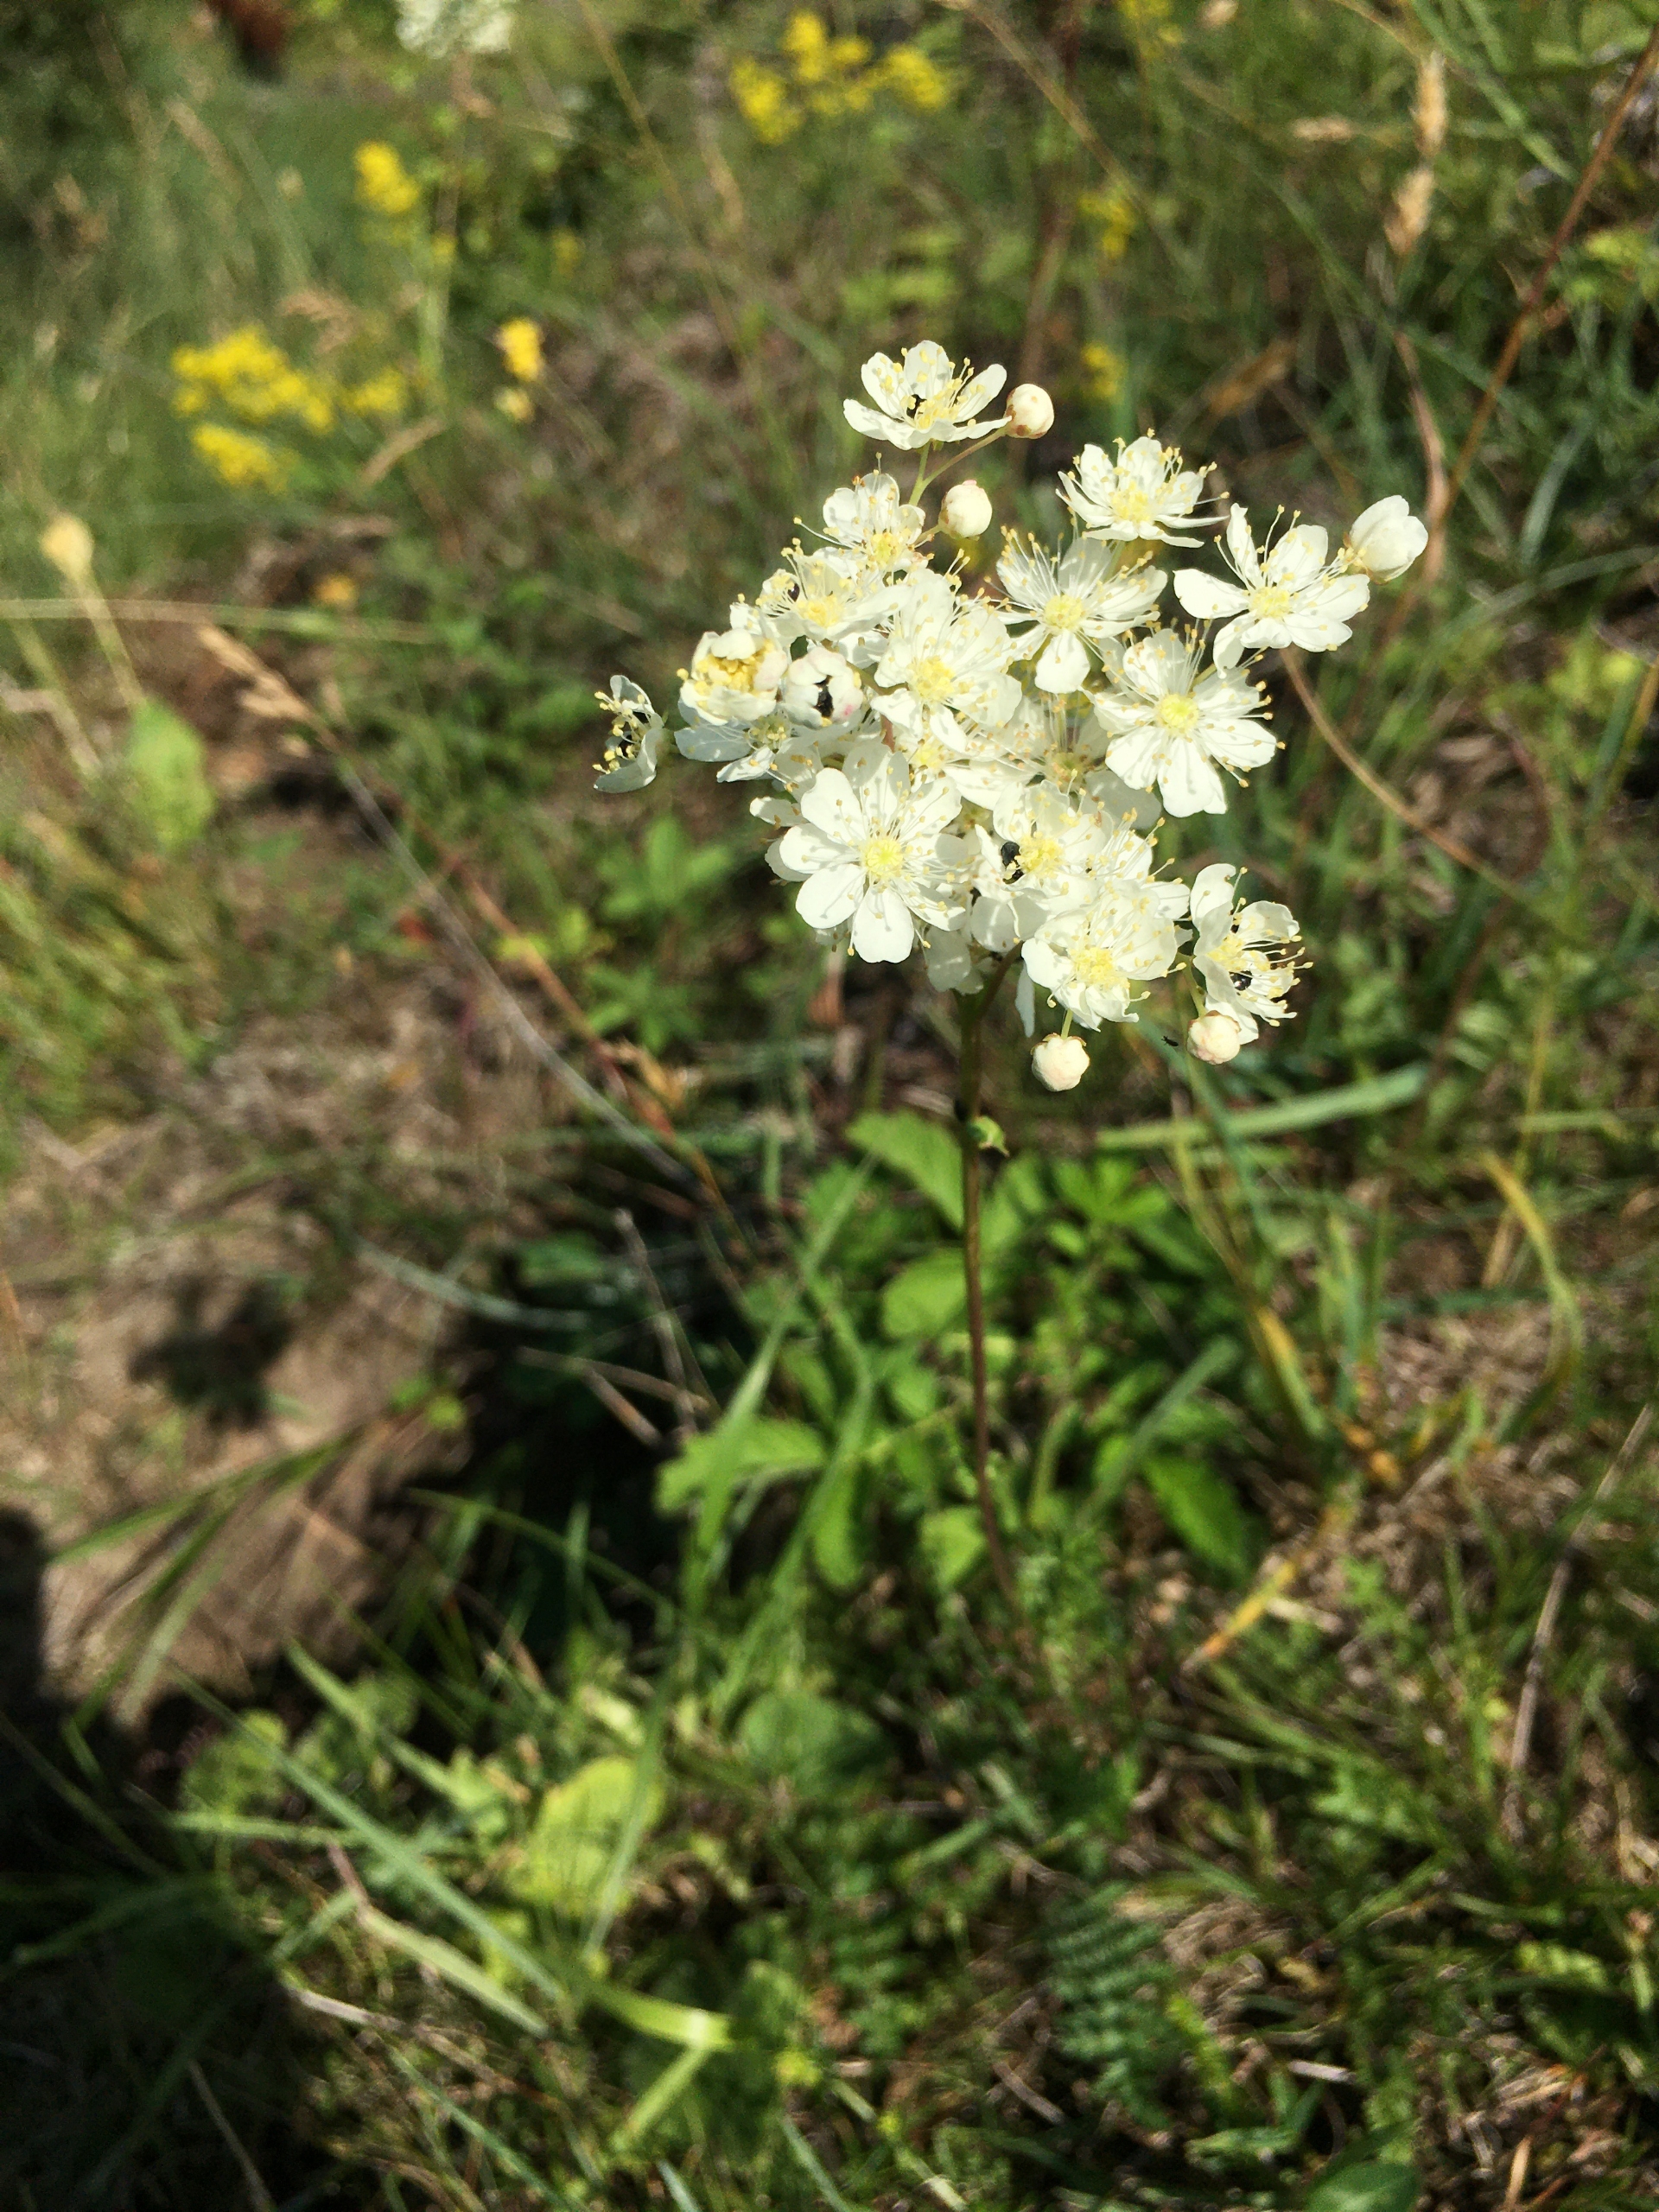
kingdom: Plantae
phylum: Tracheophyta
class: Magnoliopsida
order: Rosales
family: Rosaceae
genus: Filipendula
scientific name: Filipendula vulgaris
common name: Knoldet mjødurt
